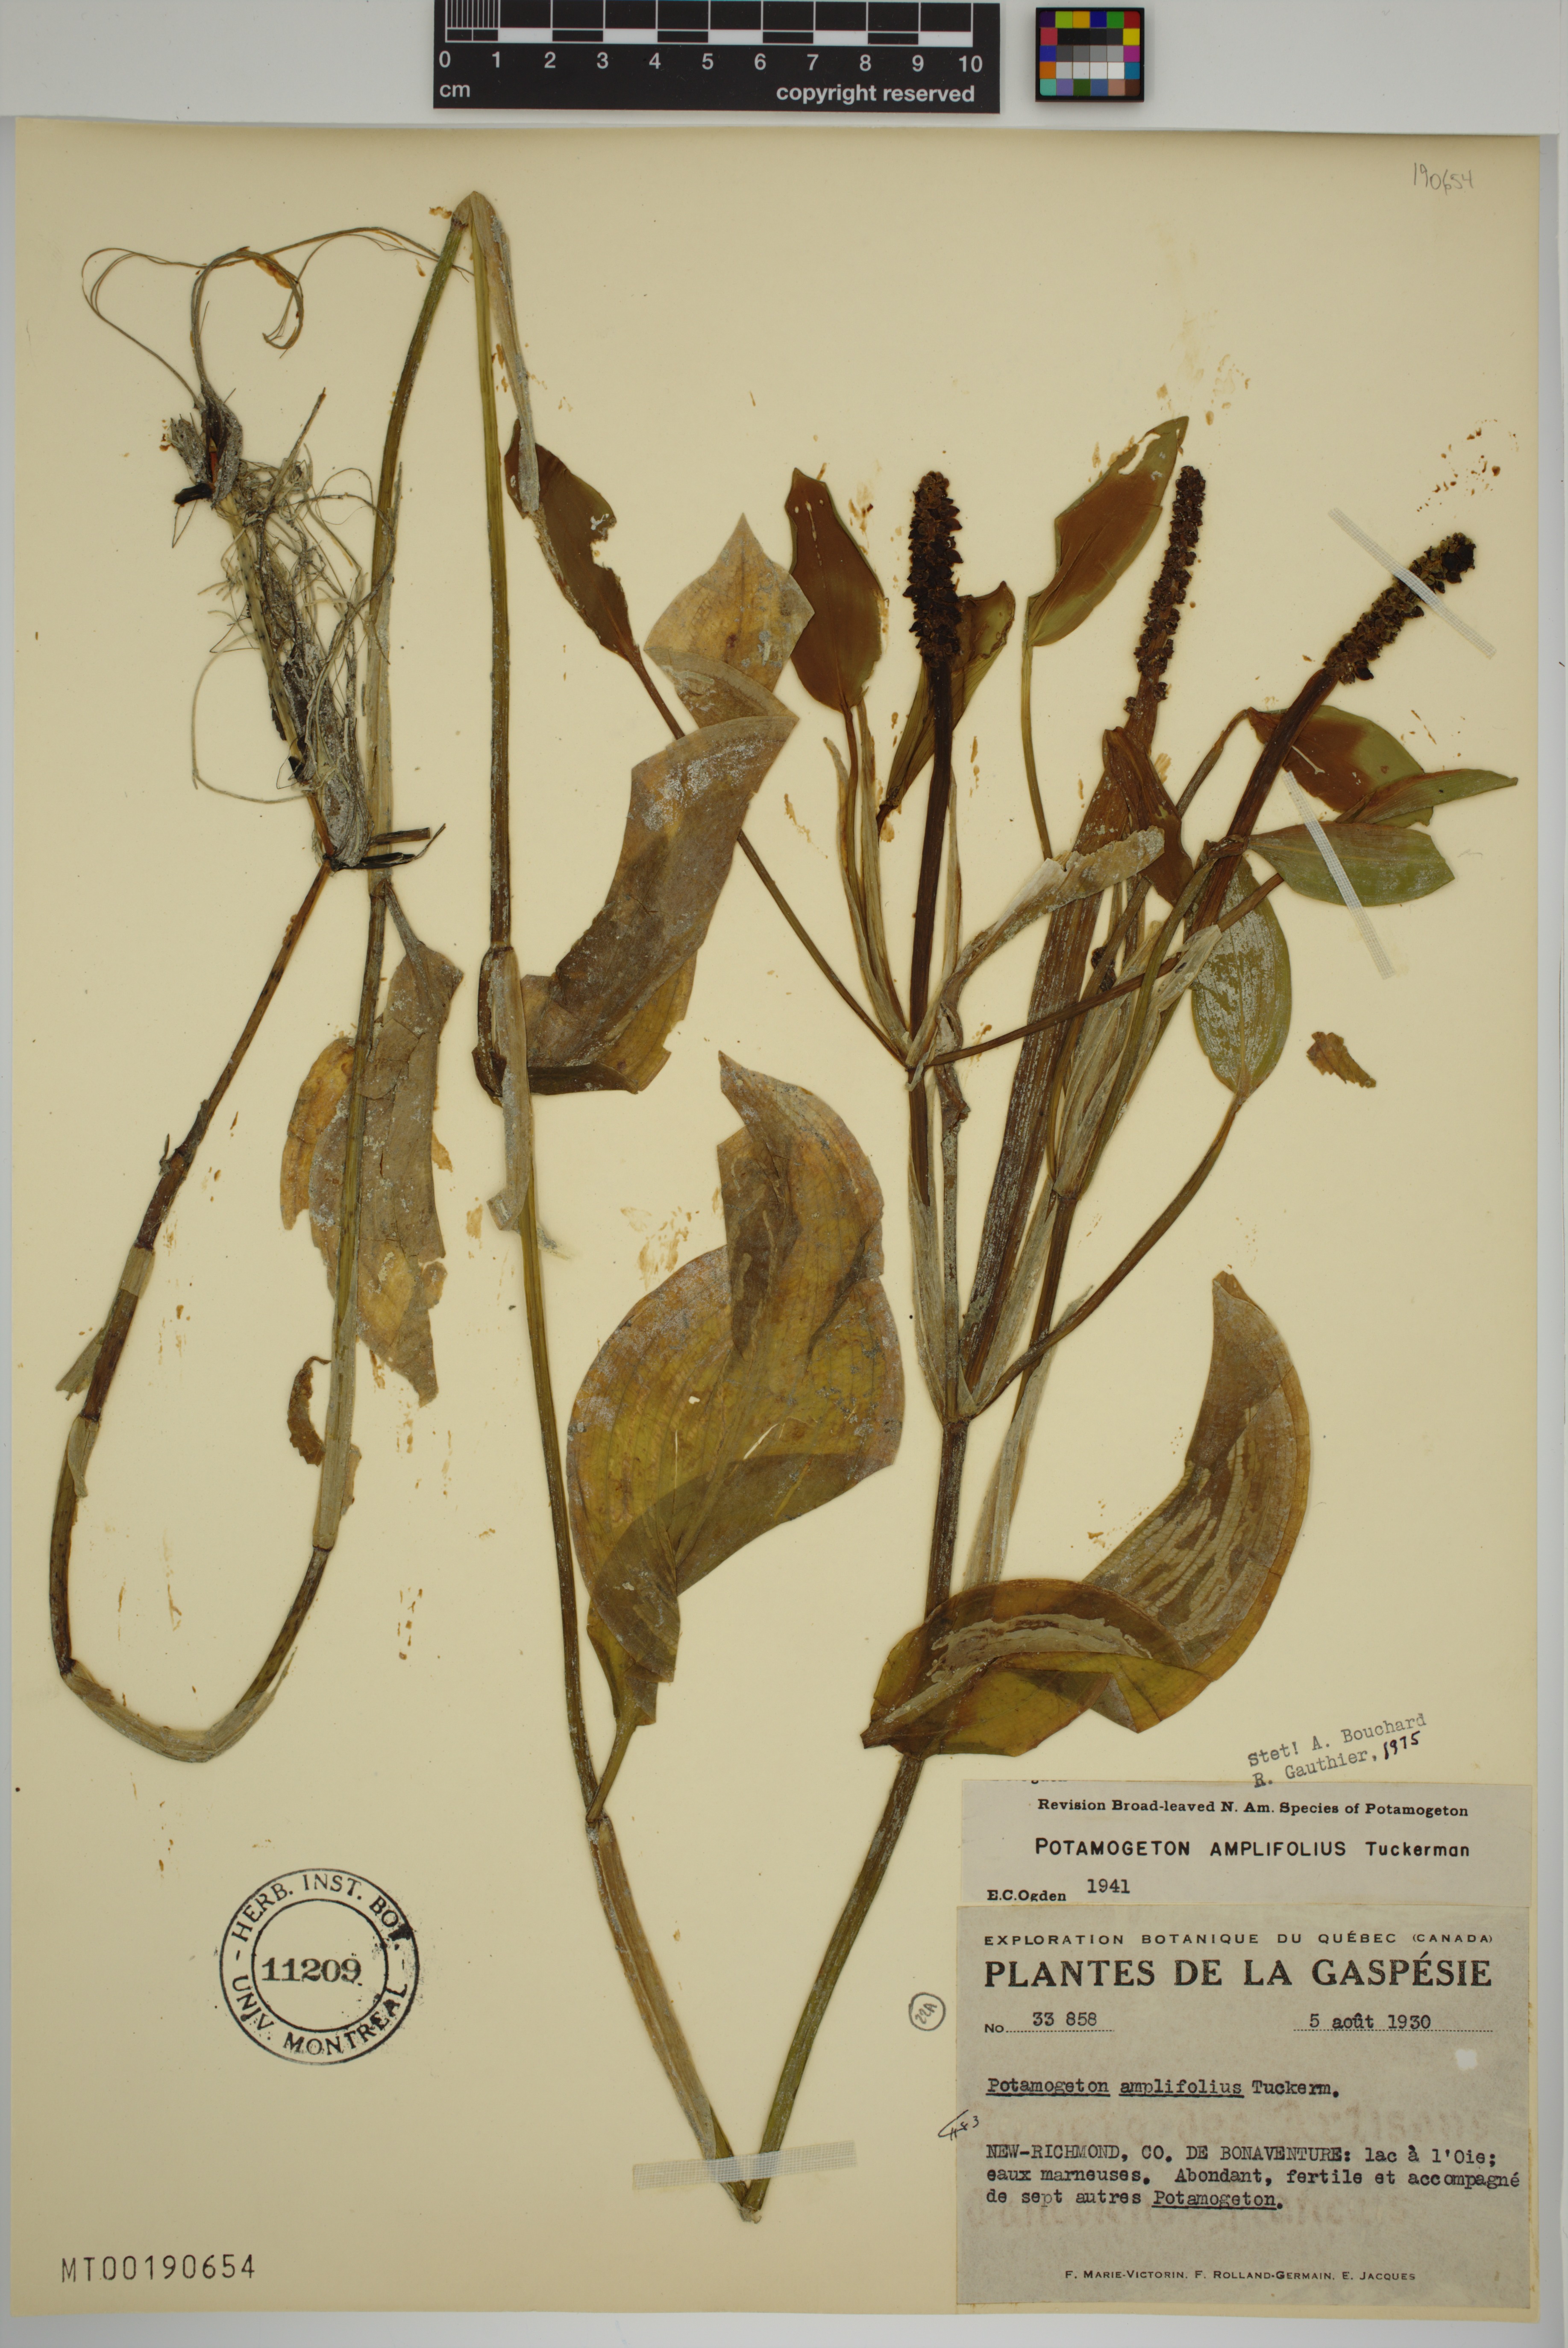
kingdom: Plantae
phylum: Tracheophyta
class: Liliopsida
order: Alismatales
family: Potamogetonaceae
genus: Potamogeton
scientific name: Potamogeton amplifolius
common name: Broad-leaved pondweed
